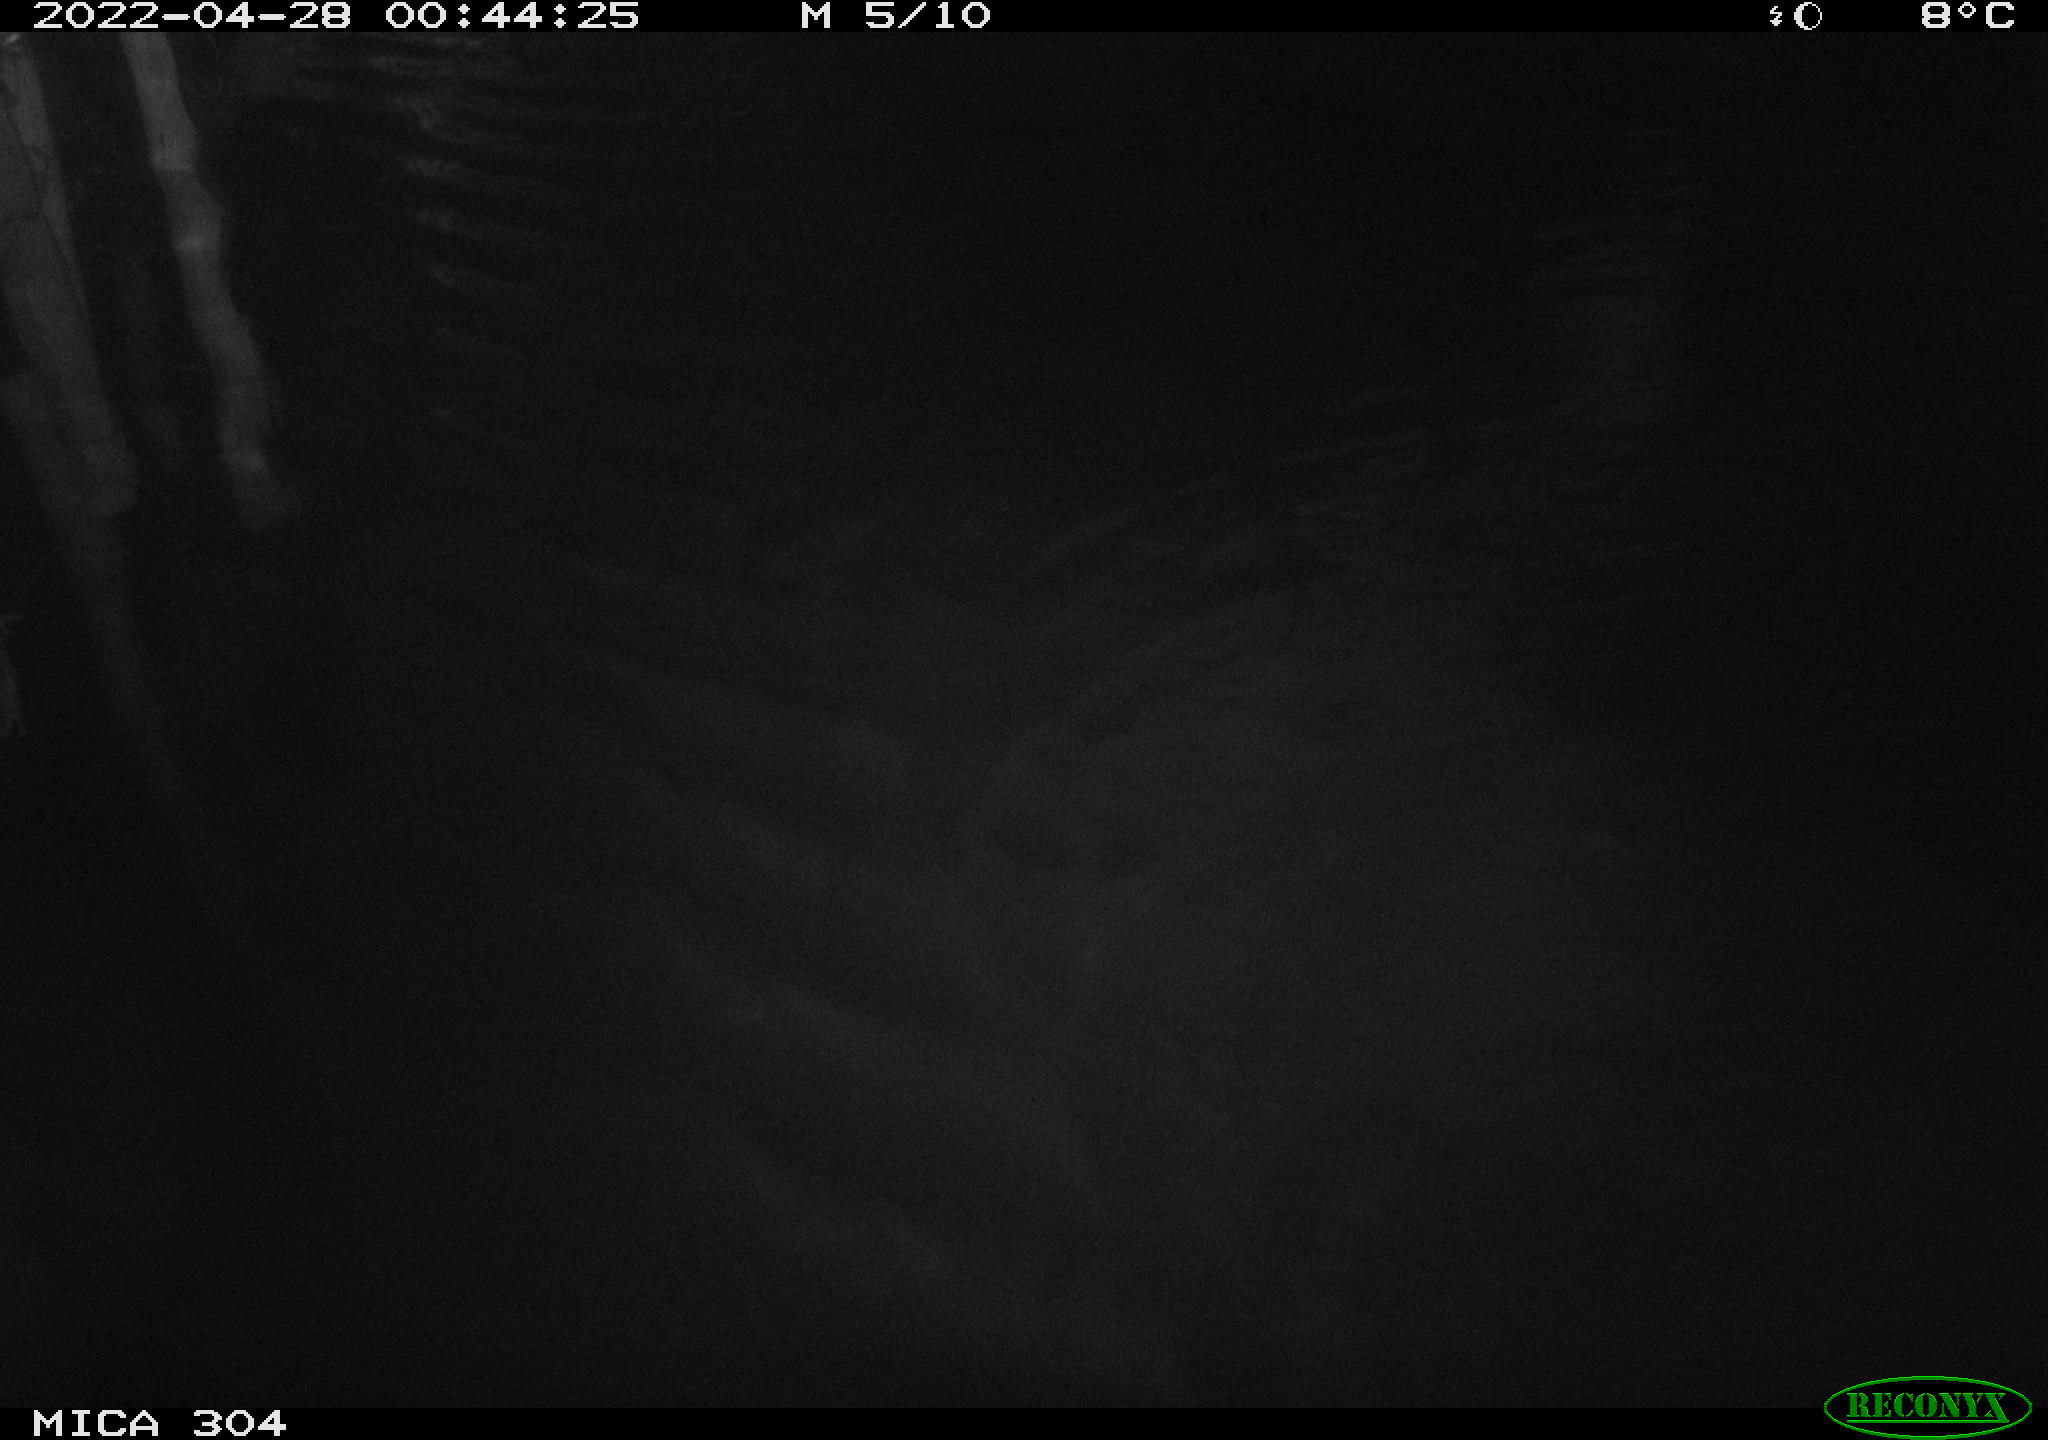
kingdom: Animalia
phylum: Chordata
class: Mammalia
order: Rodentia
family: Cricetidae
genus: Ondatra
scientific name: Ondatra zibethicus
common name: Muskrat
